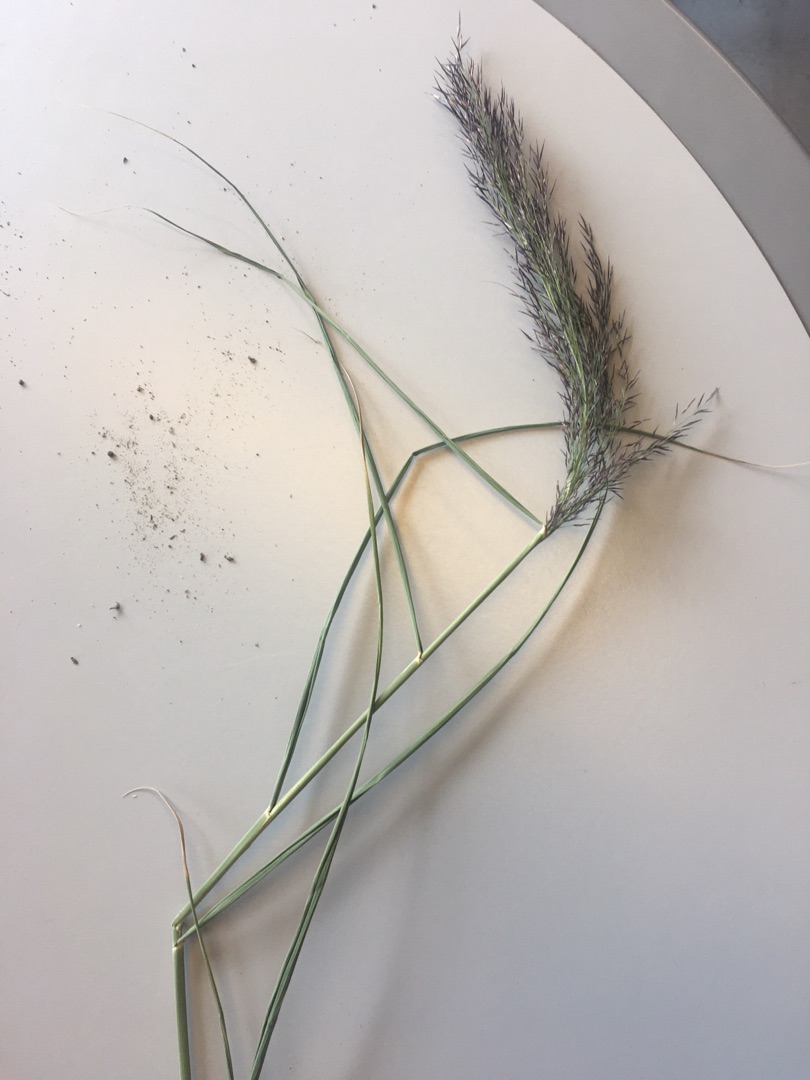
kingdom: Plantae
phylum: Tracheophyta
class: Liliopsida
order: Poales
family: Poaceae
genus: Phragmites
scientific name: Phragmites australis
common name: Tagrør
